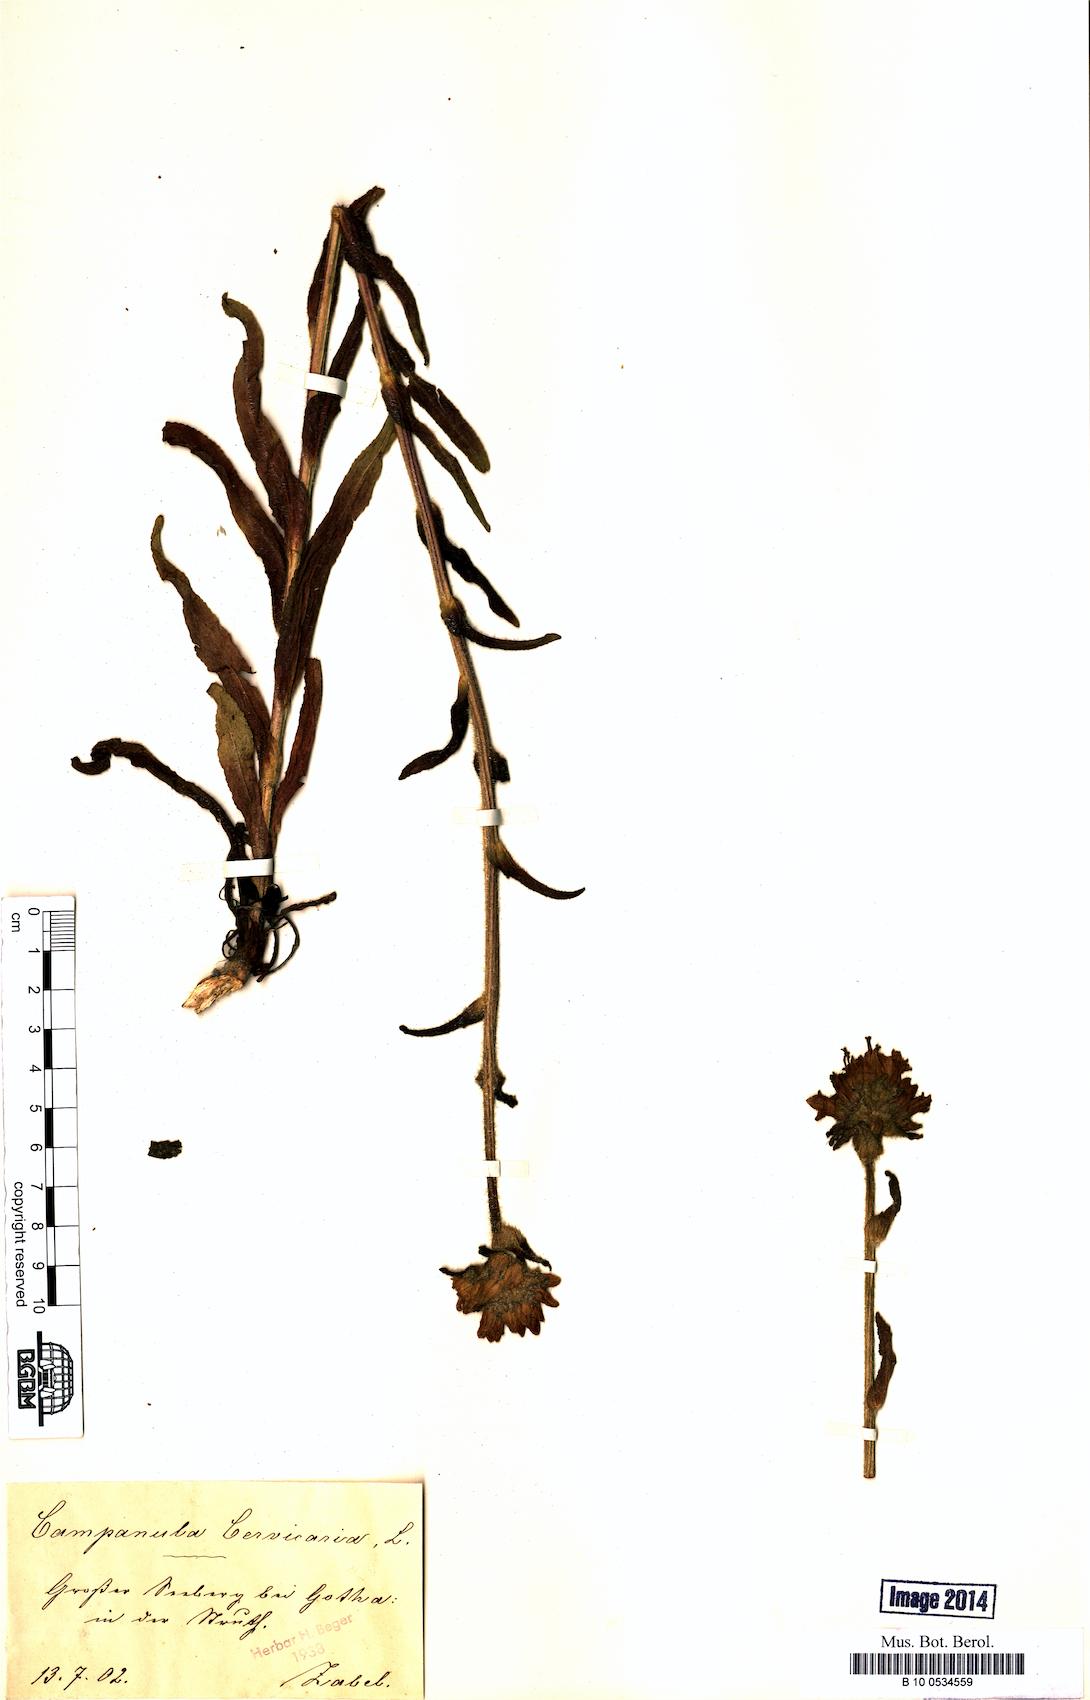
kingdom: Plantae
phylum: Tracheophyta
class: Magnoliopsida
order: Asterales
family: Campanulaceae
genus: Campanula
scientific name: Campanula cervicaria
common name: Bristly bellflower
